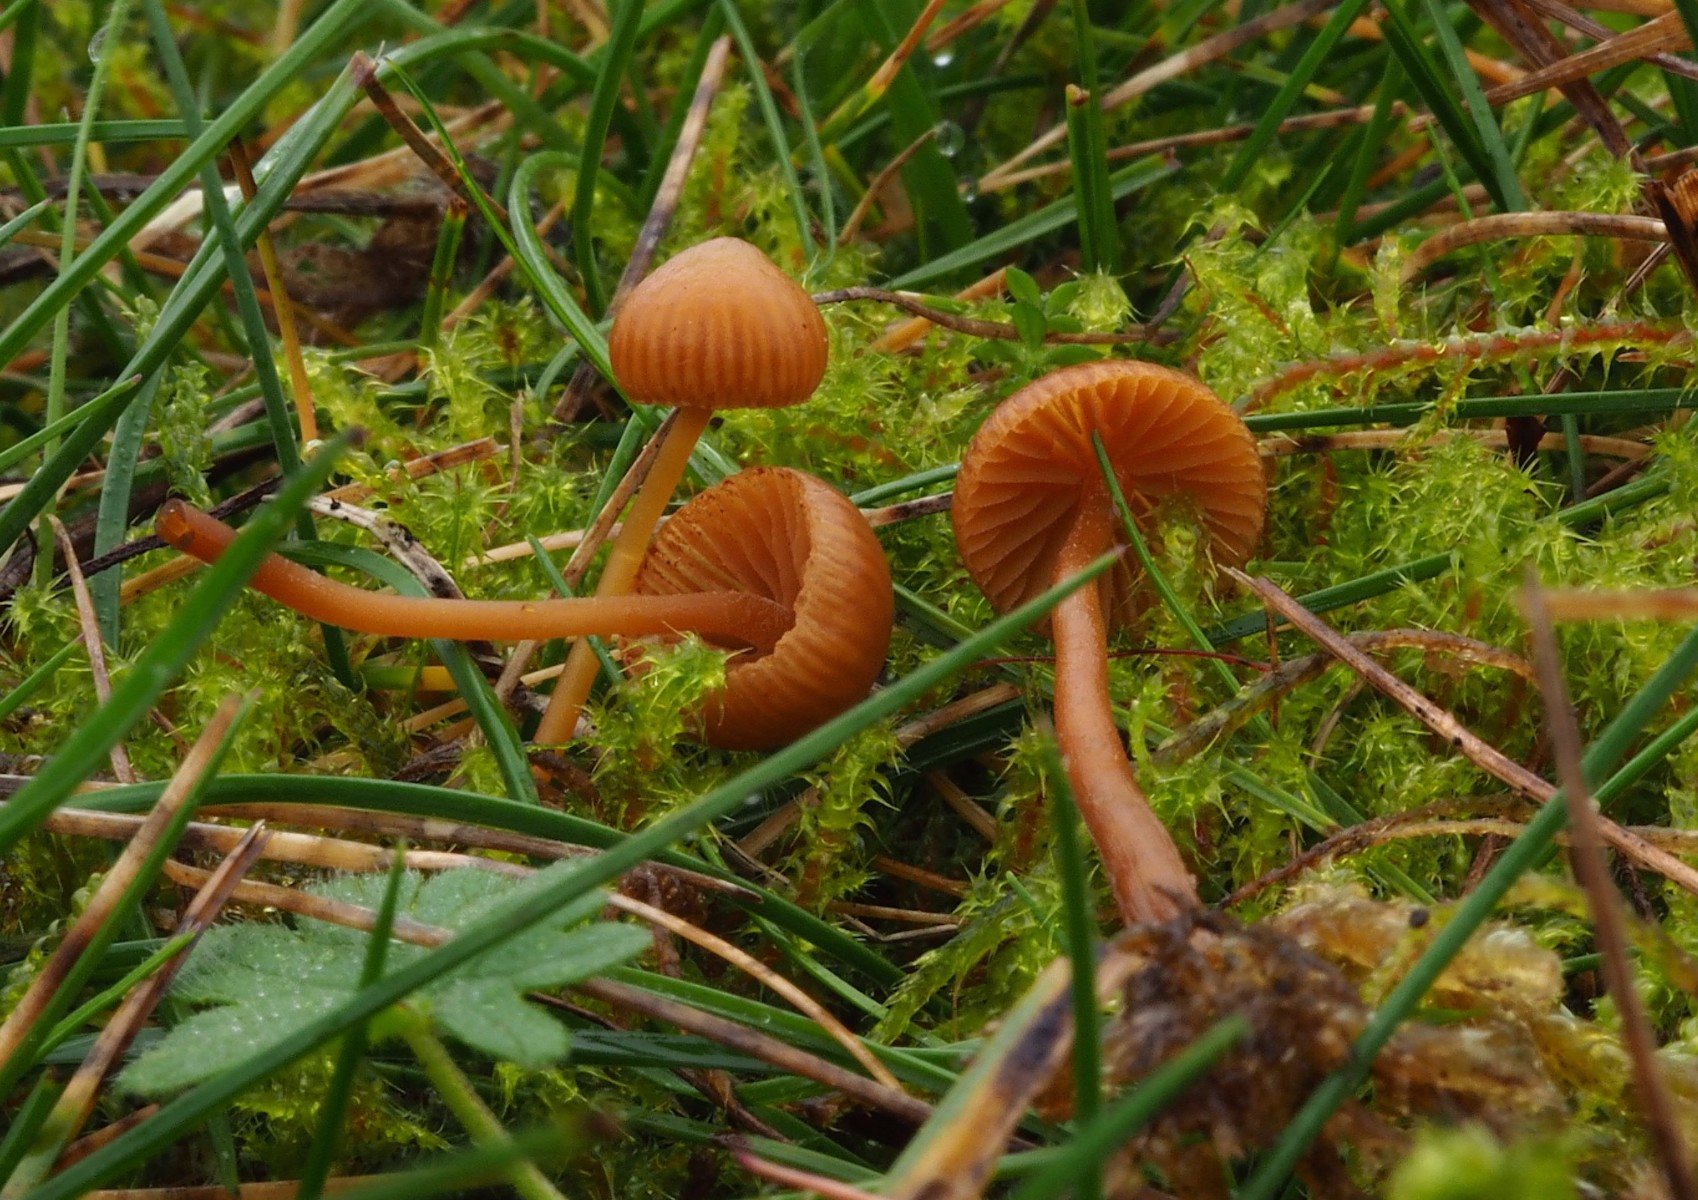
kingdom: Fungi
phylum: Basidiomycota
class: Agaricomycetes
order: Agaricales
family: Hymenogastraceae
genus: Galerina
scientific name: Galerina vittiformis
